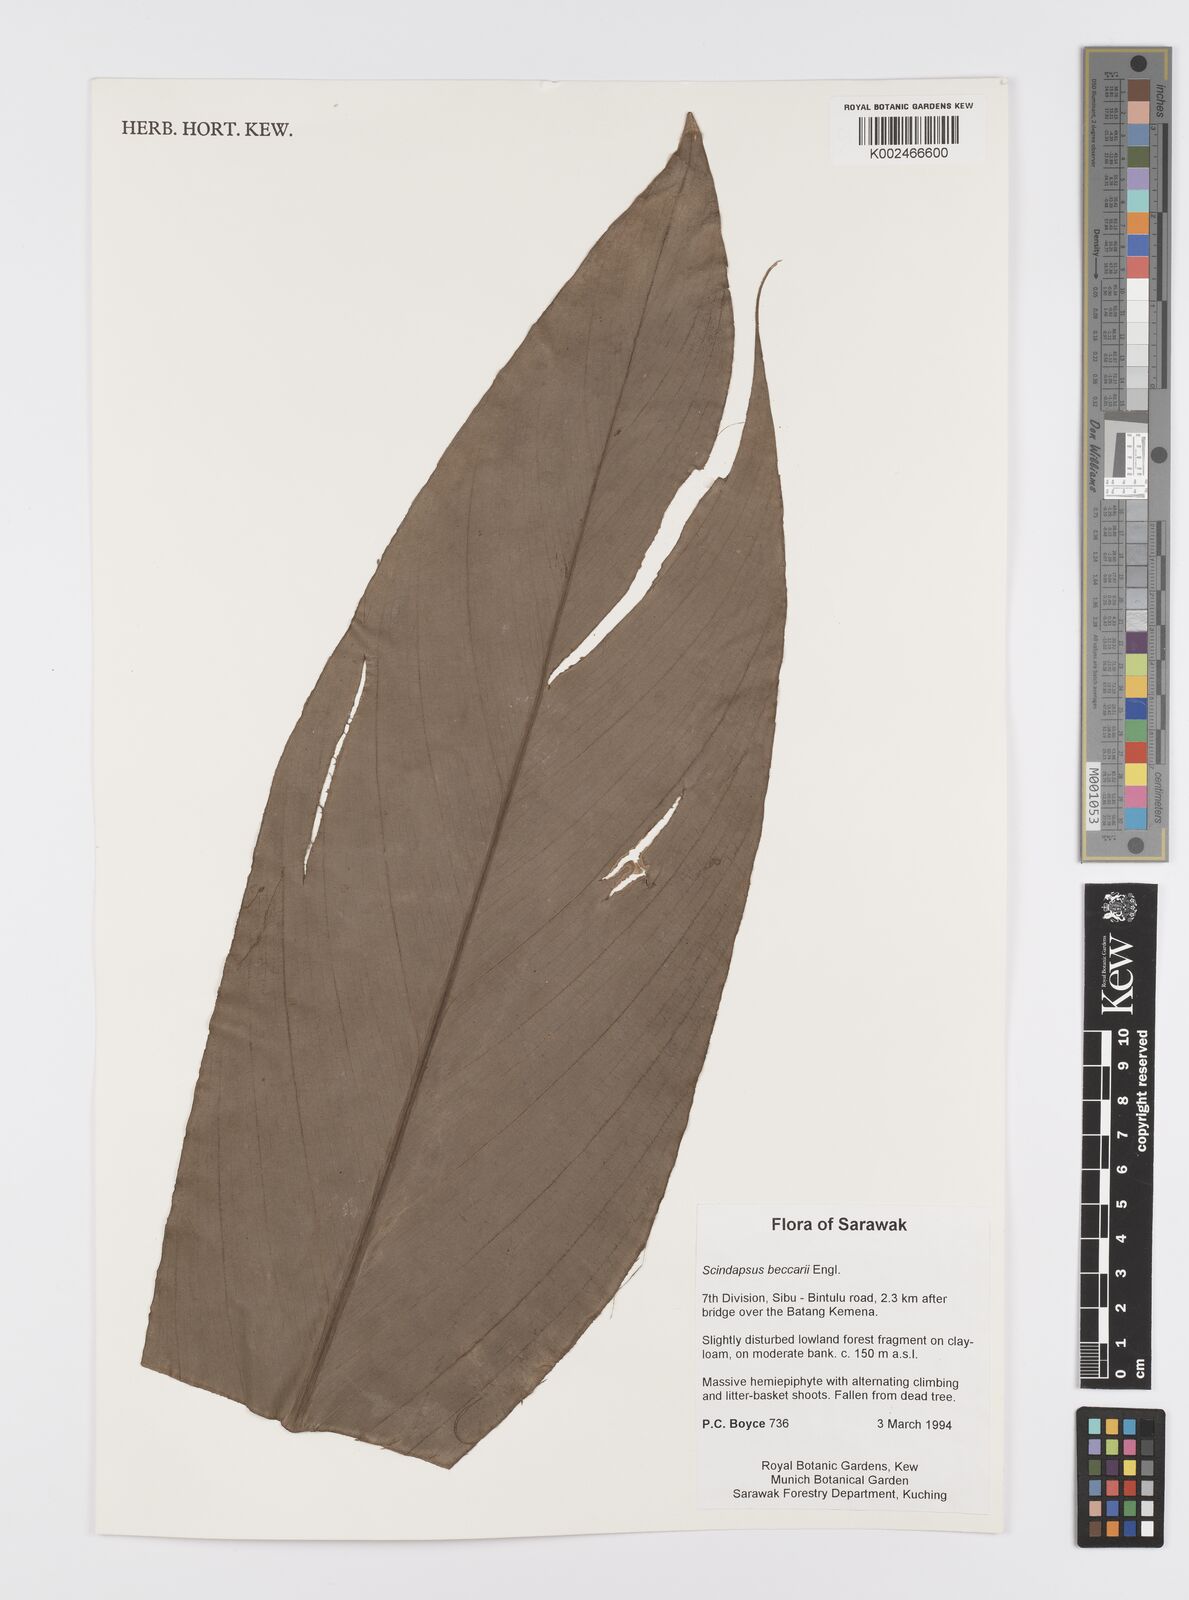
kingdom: Plantae
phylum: Tracheophyta
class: Liliopsida
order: Alismatales
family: Araceae
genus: Scindapsus
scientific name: Scindapsus beccarii
